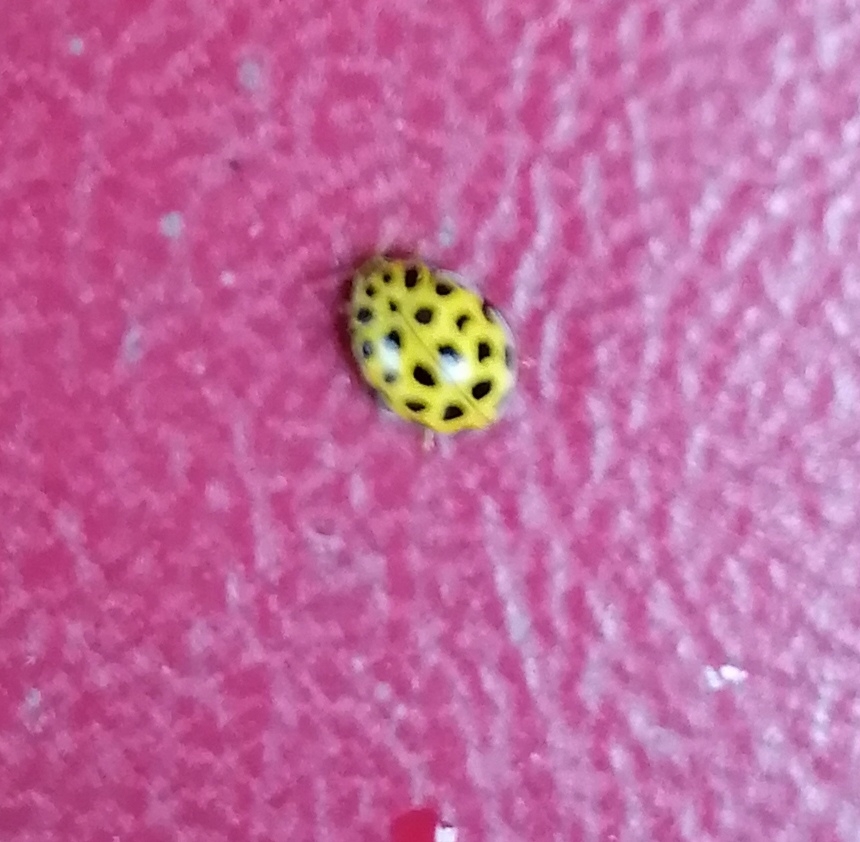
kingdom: Animalia
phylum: Arthropoda
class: Insecta
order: Coleoptera
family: Coccinellidae
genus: Psyllobora
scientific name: Psyllobora vigintiduopunctata
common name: Toogtyveplettet mariehøne
